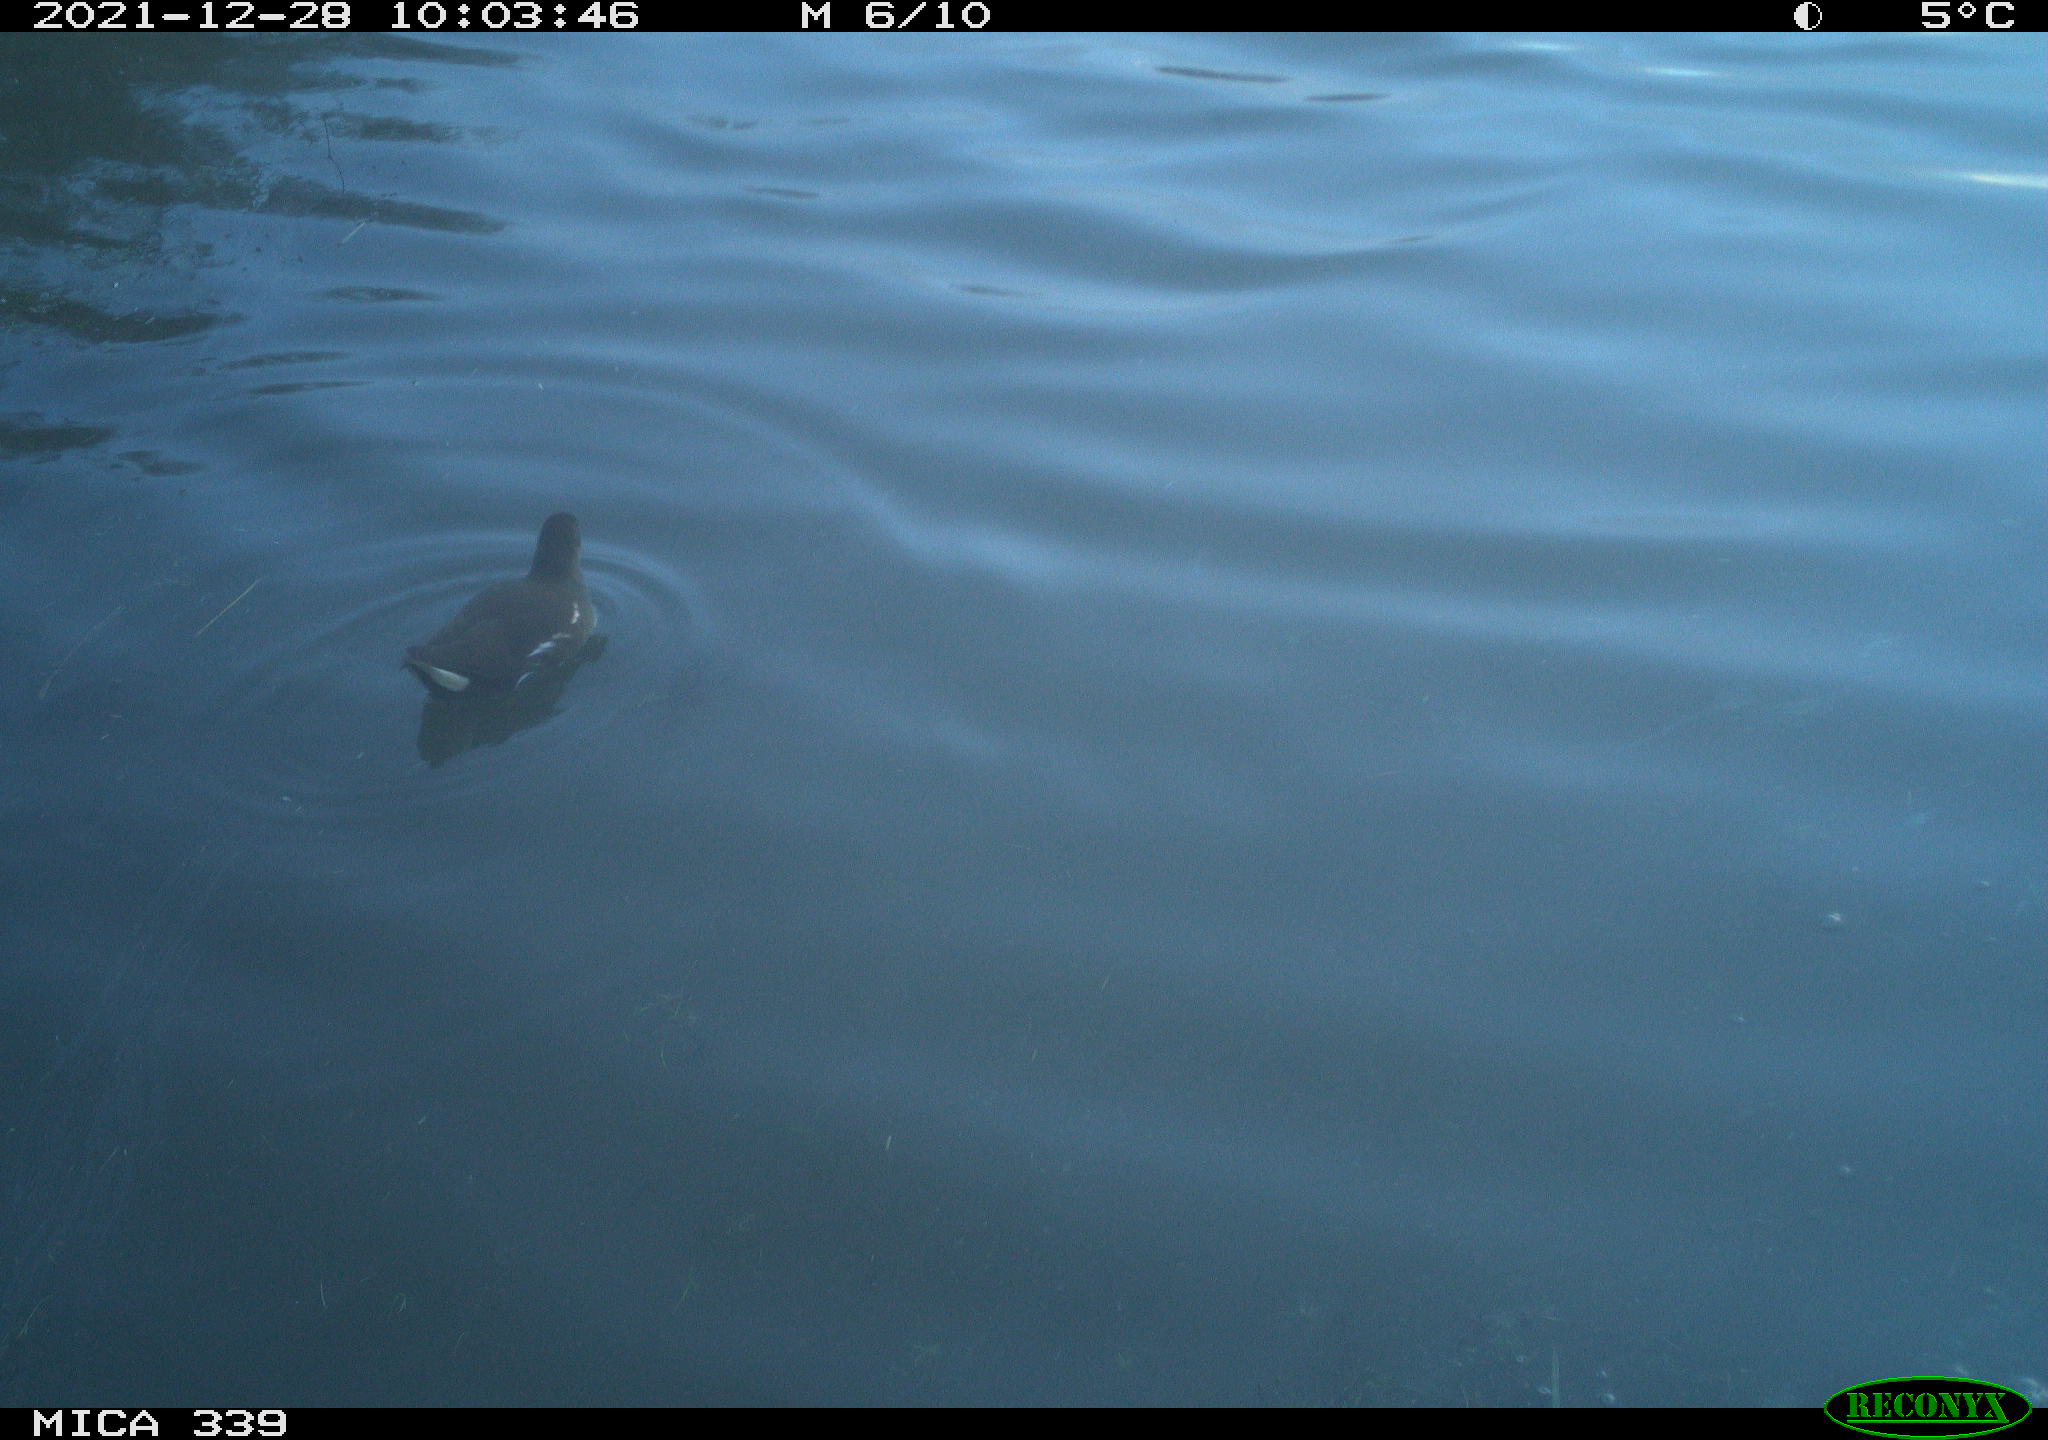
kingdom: Animalia
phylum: Chordata
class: Aves
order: Gruiformes
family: Rallidae
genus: Gallinula
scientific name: Gallinula chloropus
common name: Common moorhen
